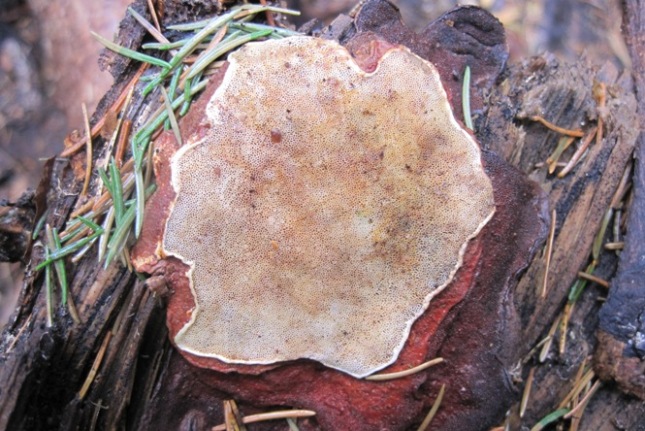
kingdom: Fungi
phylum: Basidiomycota
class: Agaricomycetes
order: Russulales
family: Bondarzewiaceae
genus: Heterobasidion
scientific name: Heterobasidion annosum
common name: almindelig rodfordærver
